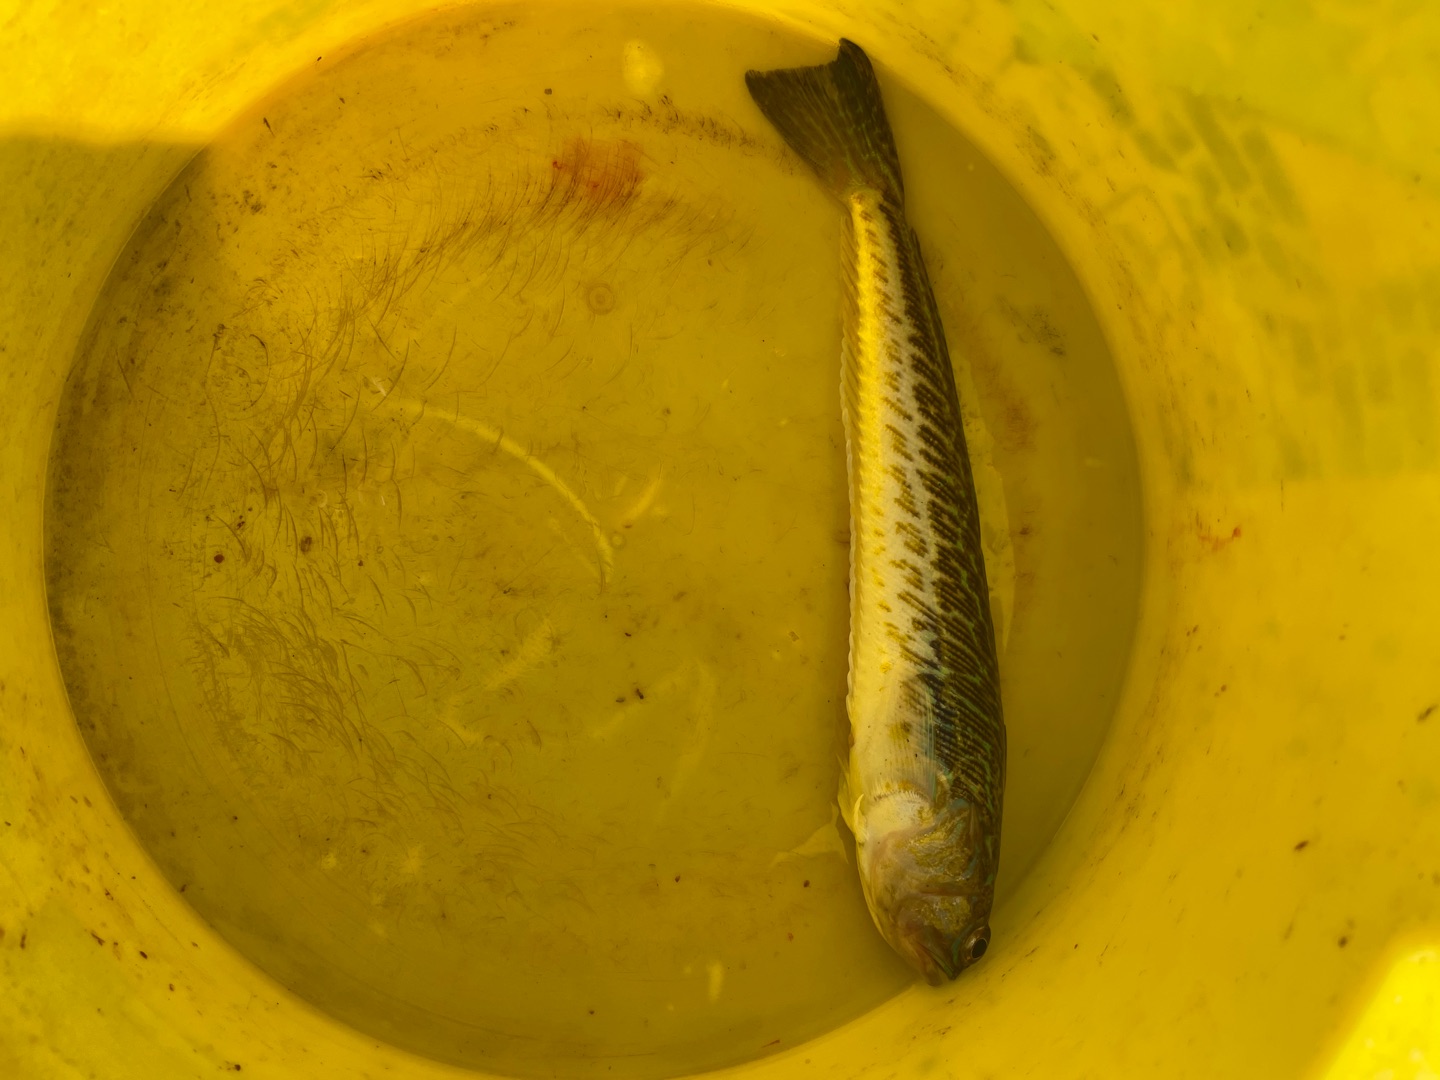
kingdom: Animalia
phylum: Chordata
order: Perciformes
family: Trachinidae
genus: Trachinus
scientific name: Trachinus draco
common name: Almindelig fjæsing
